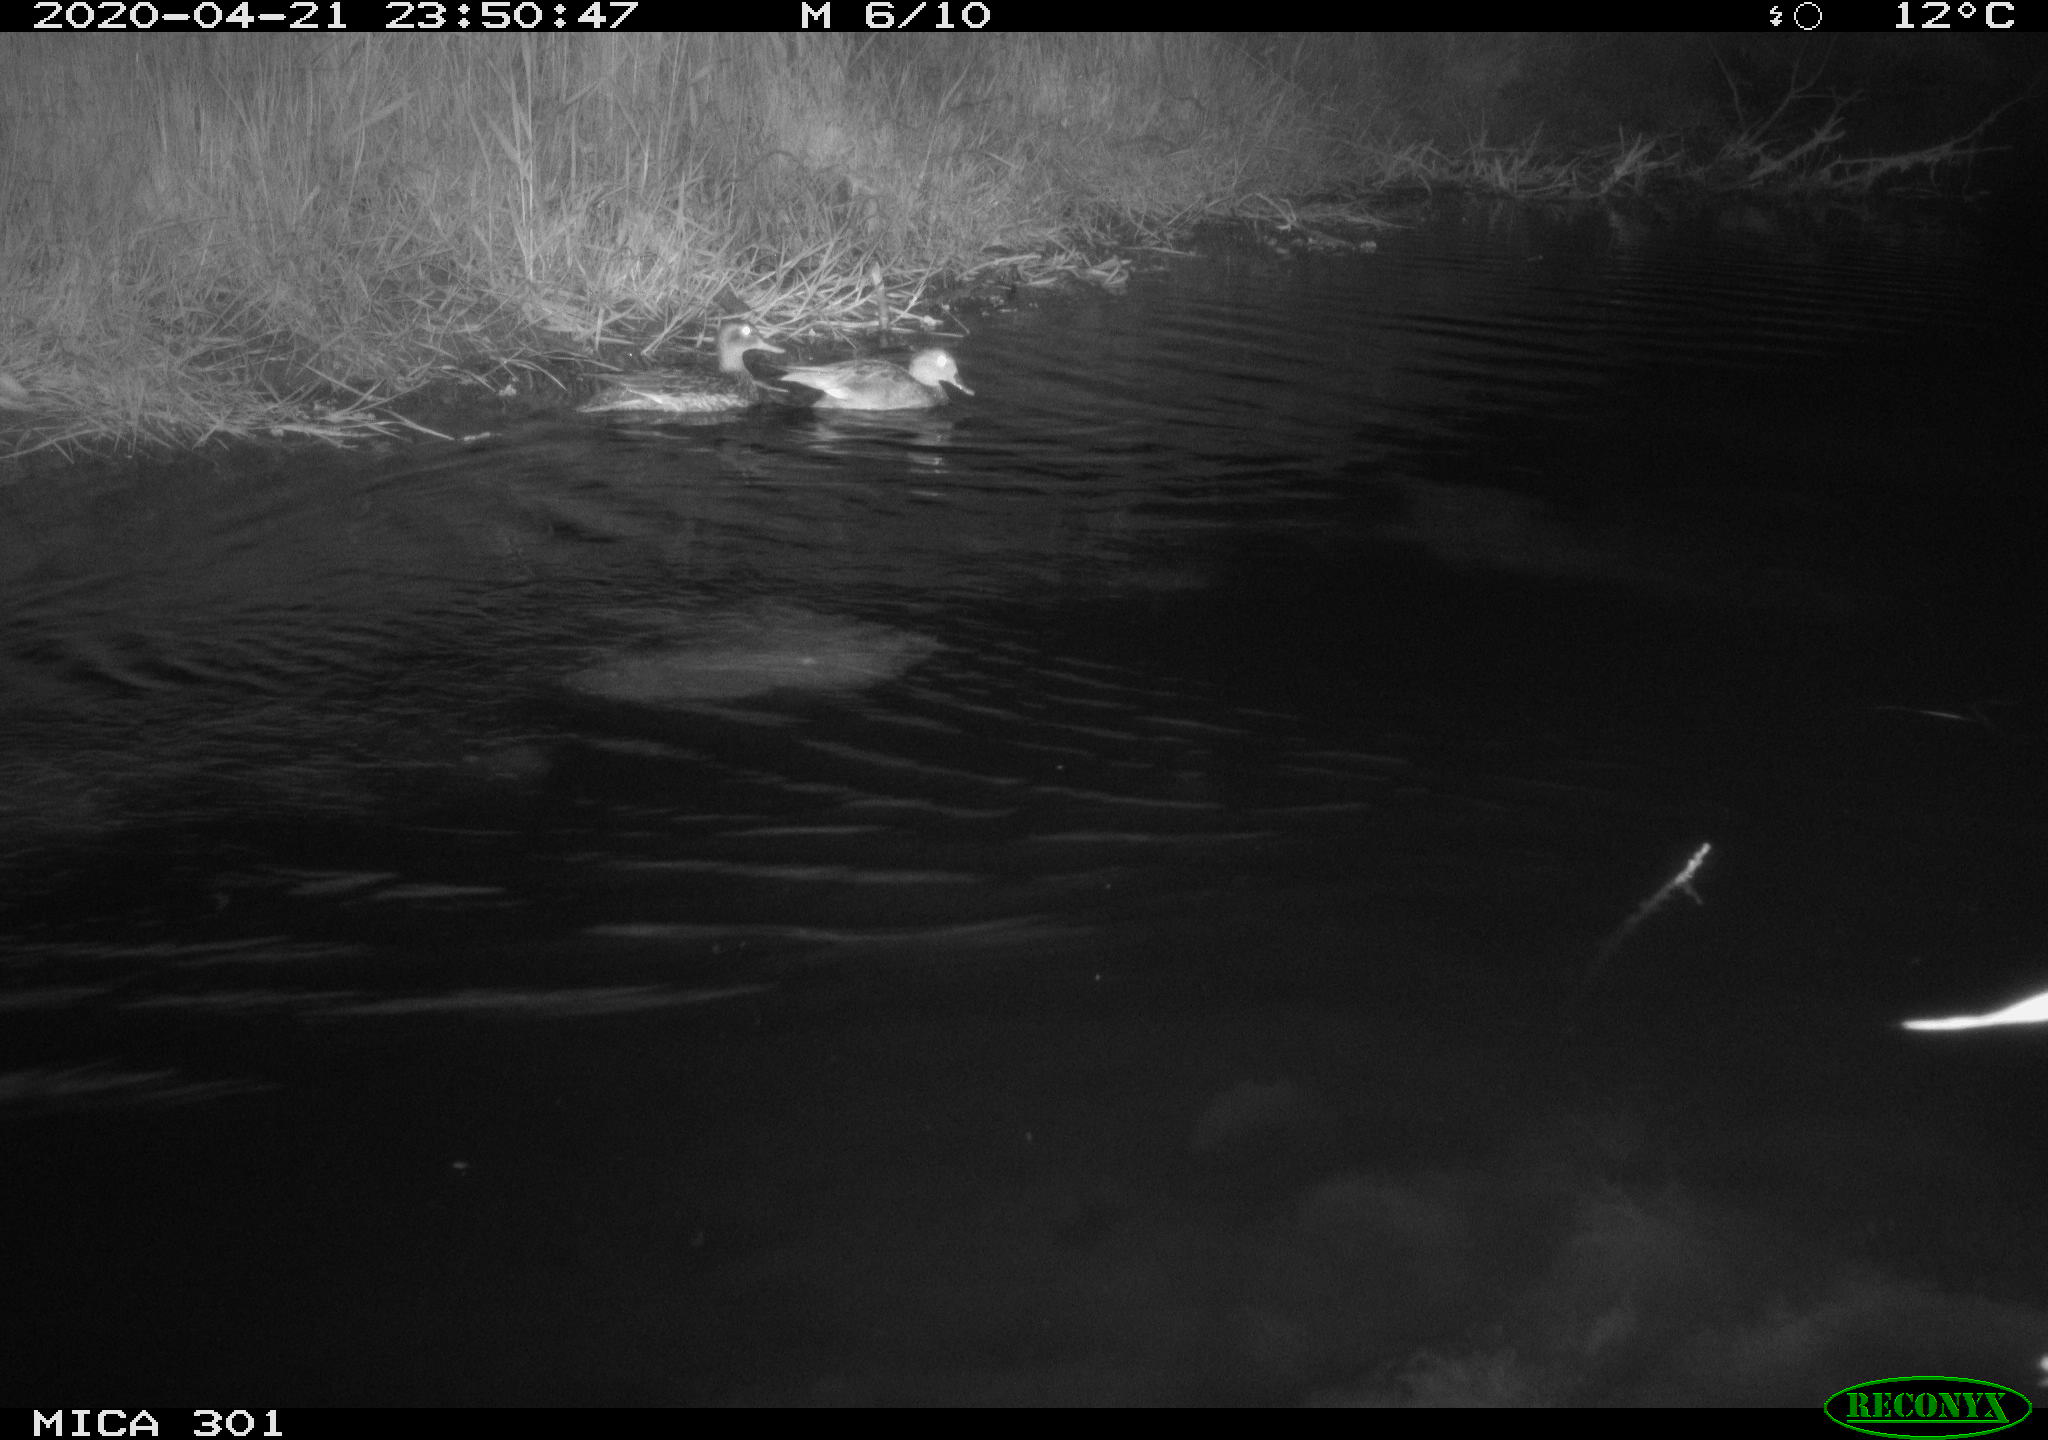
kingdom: Animalia
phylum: Chordata
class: Aves
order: Anseriformes
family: Anatidae
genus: Mareca
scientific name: Mareca strepera
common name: Gadwall
